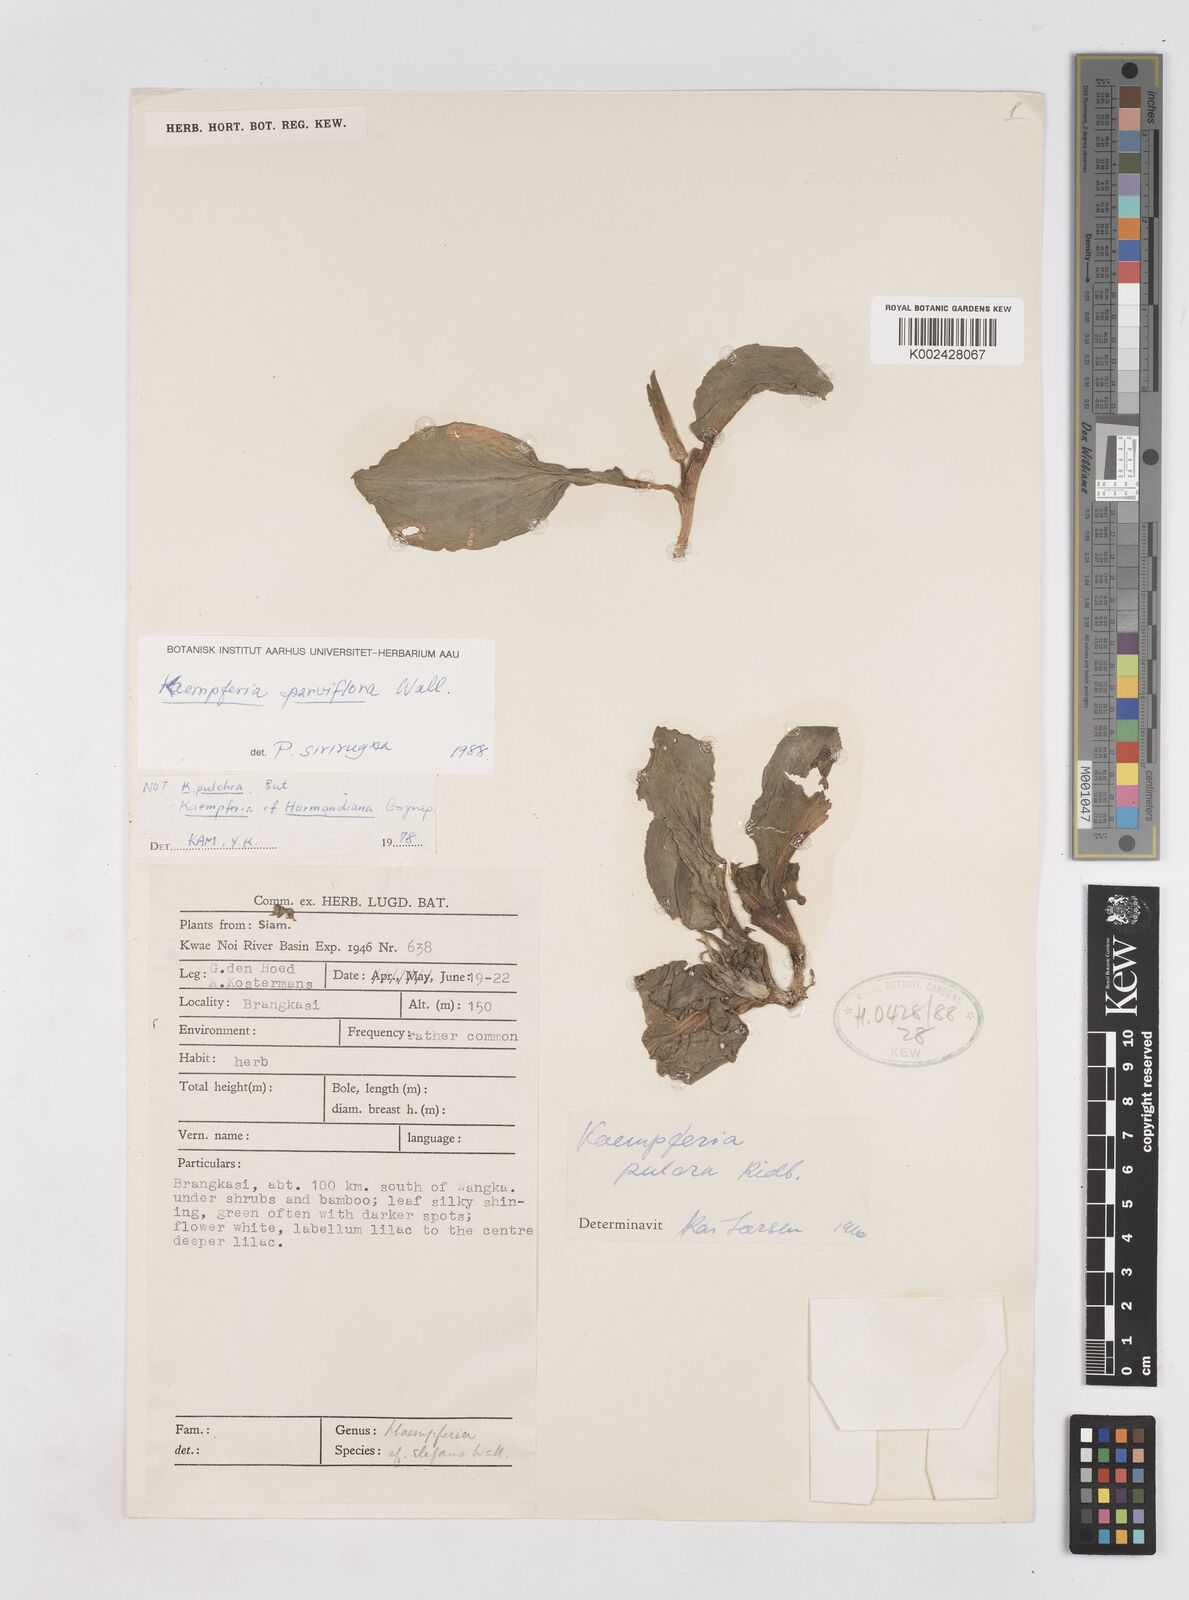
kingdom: Plantae
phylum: Tracheophyta
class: Liliopsida
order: Zingiberales
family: Zingiberaceae
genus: Kaempferia
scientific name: Kaempferia parviflora
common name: Black galingale
